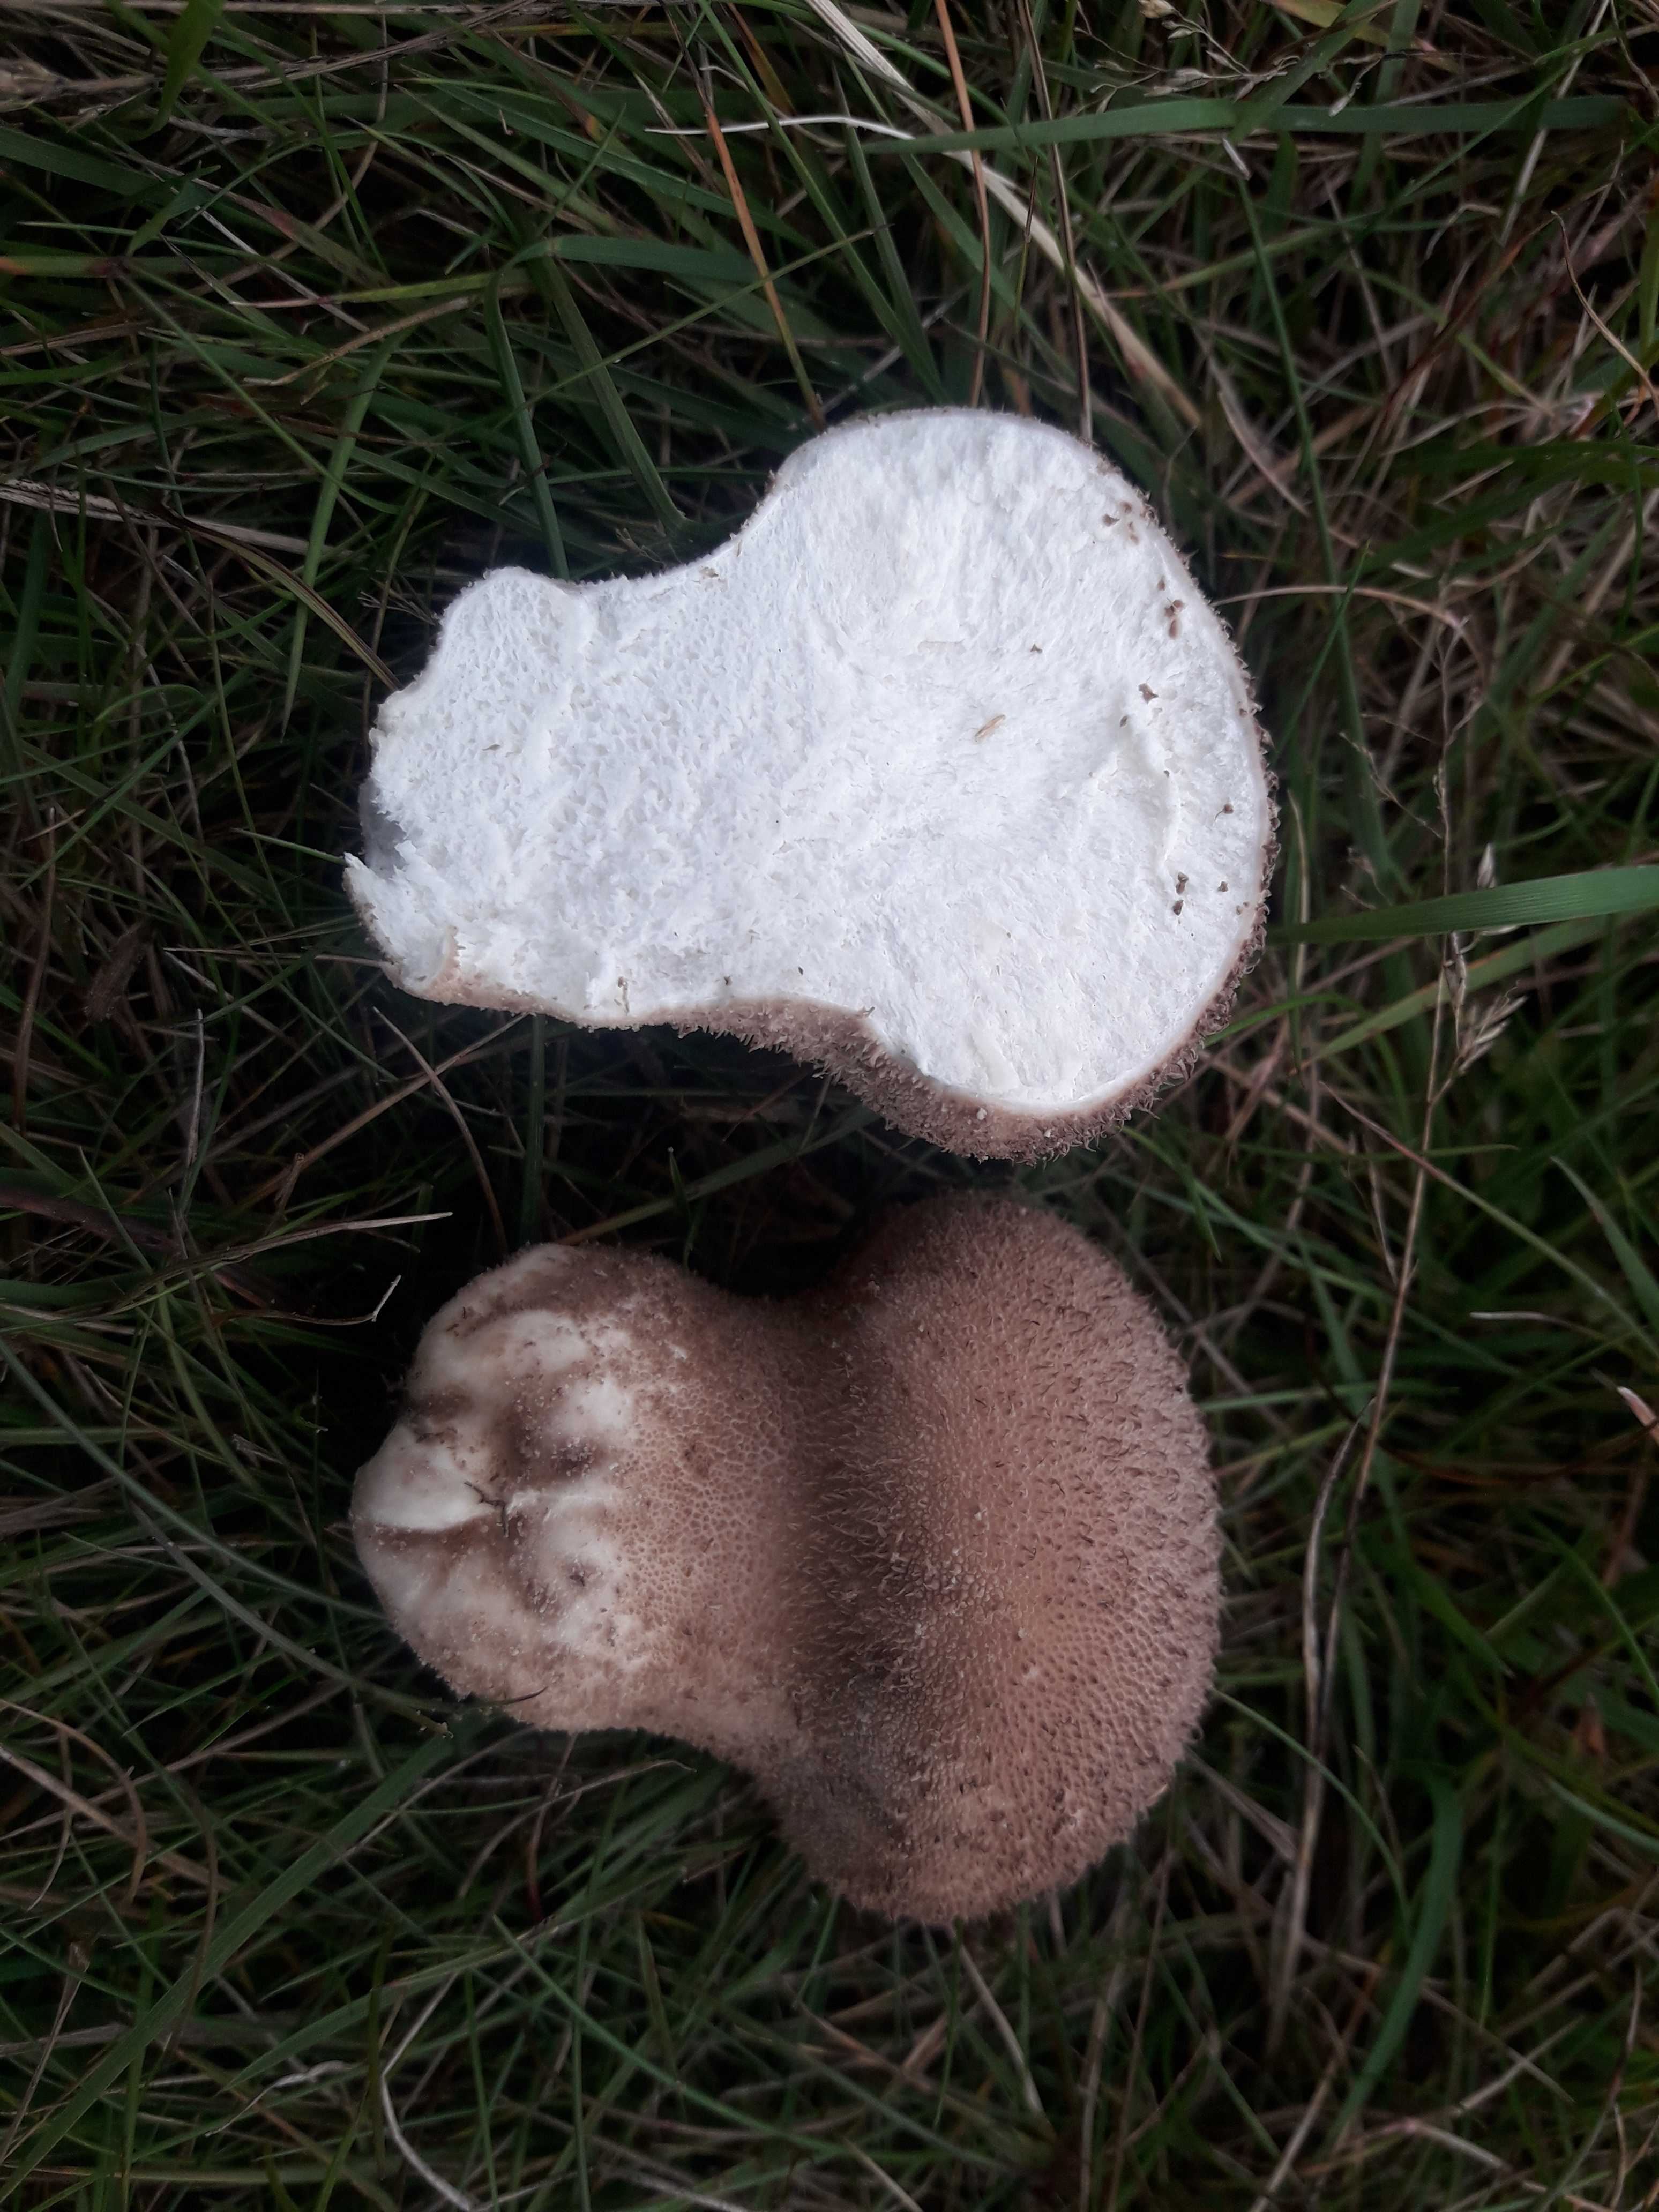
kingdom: Fungi
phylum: Basidiomycota
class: Agaricomycetes
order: Agaricales
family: Lycoperdaceae
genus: Lycoperdon
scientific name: Lycoperdon nigrescens
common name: sortagtig støvbold
